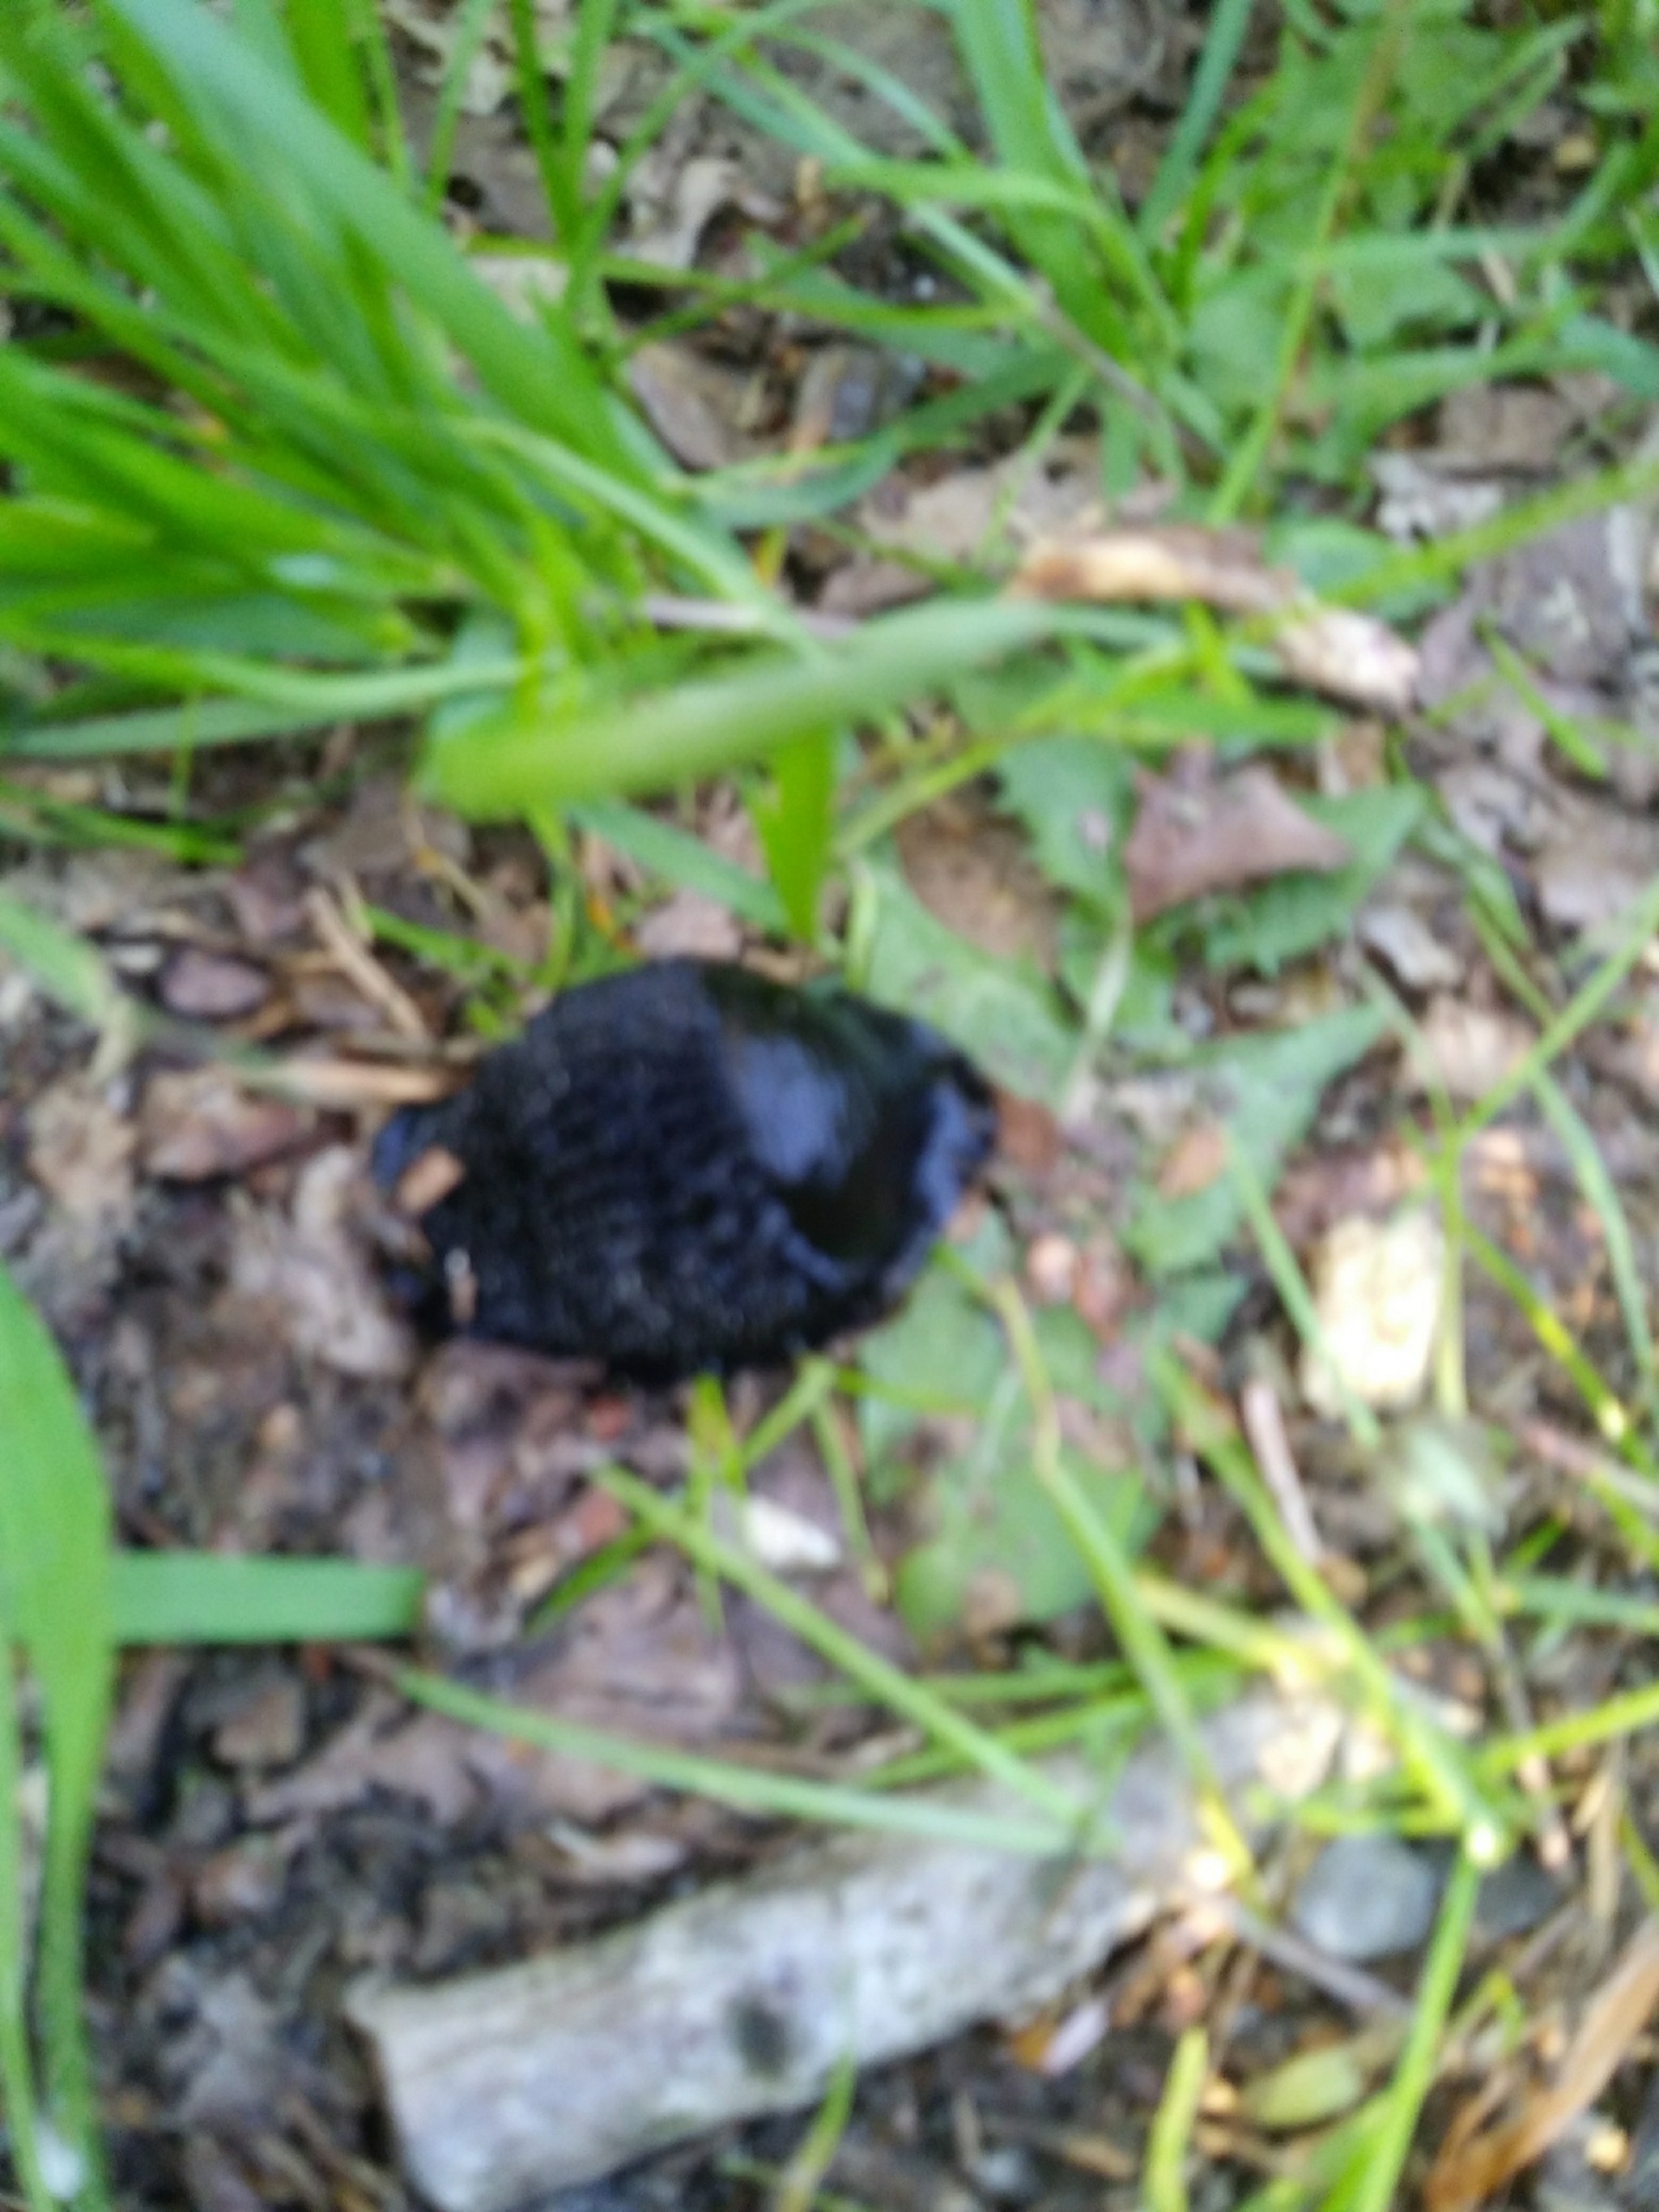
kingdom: Animalia
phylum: Mollusca
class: Gastropoda
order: Stylommatophora
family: Arionidae
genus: Arion
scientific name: Arion ater
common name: Sort skovsnegl
